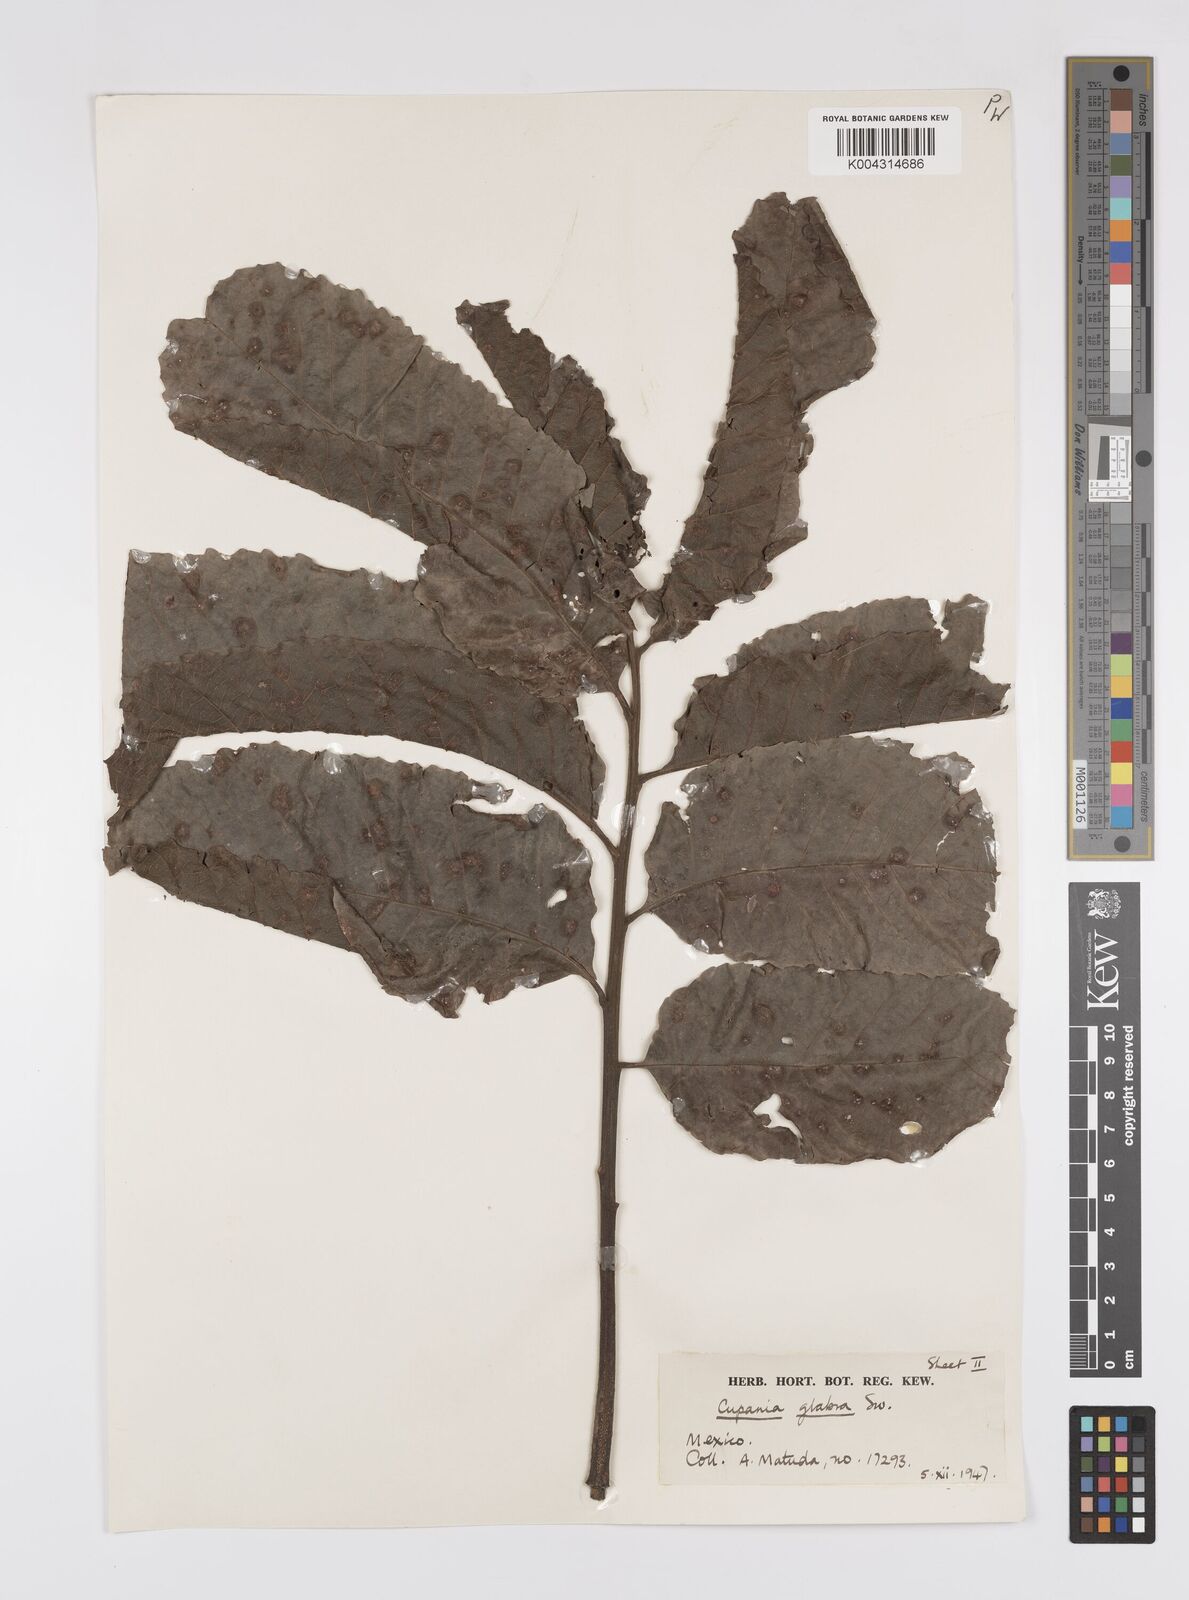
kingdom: Plantae
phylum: Tracheophyta
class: Magnoliopsida
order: Sapindales
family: Sapindaceae
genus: Cupania
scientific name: Cupania
